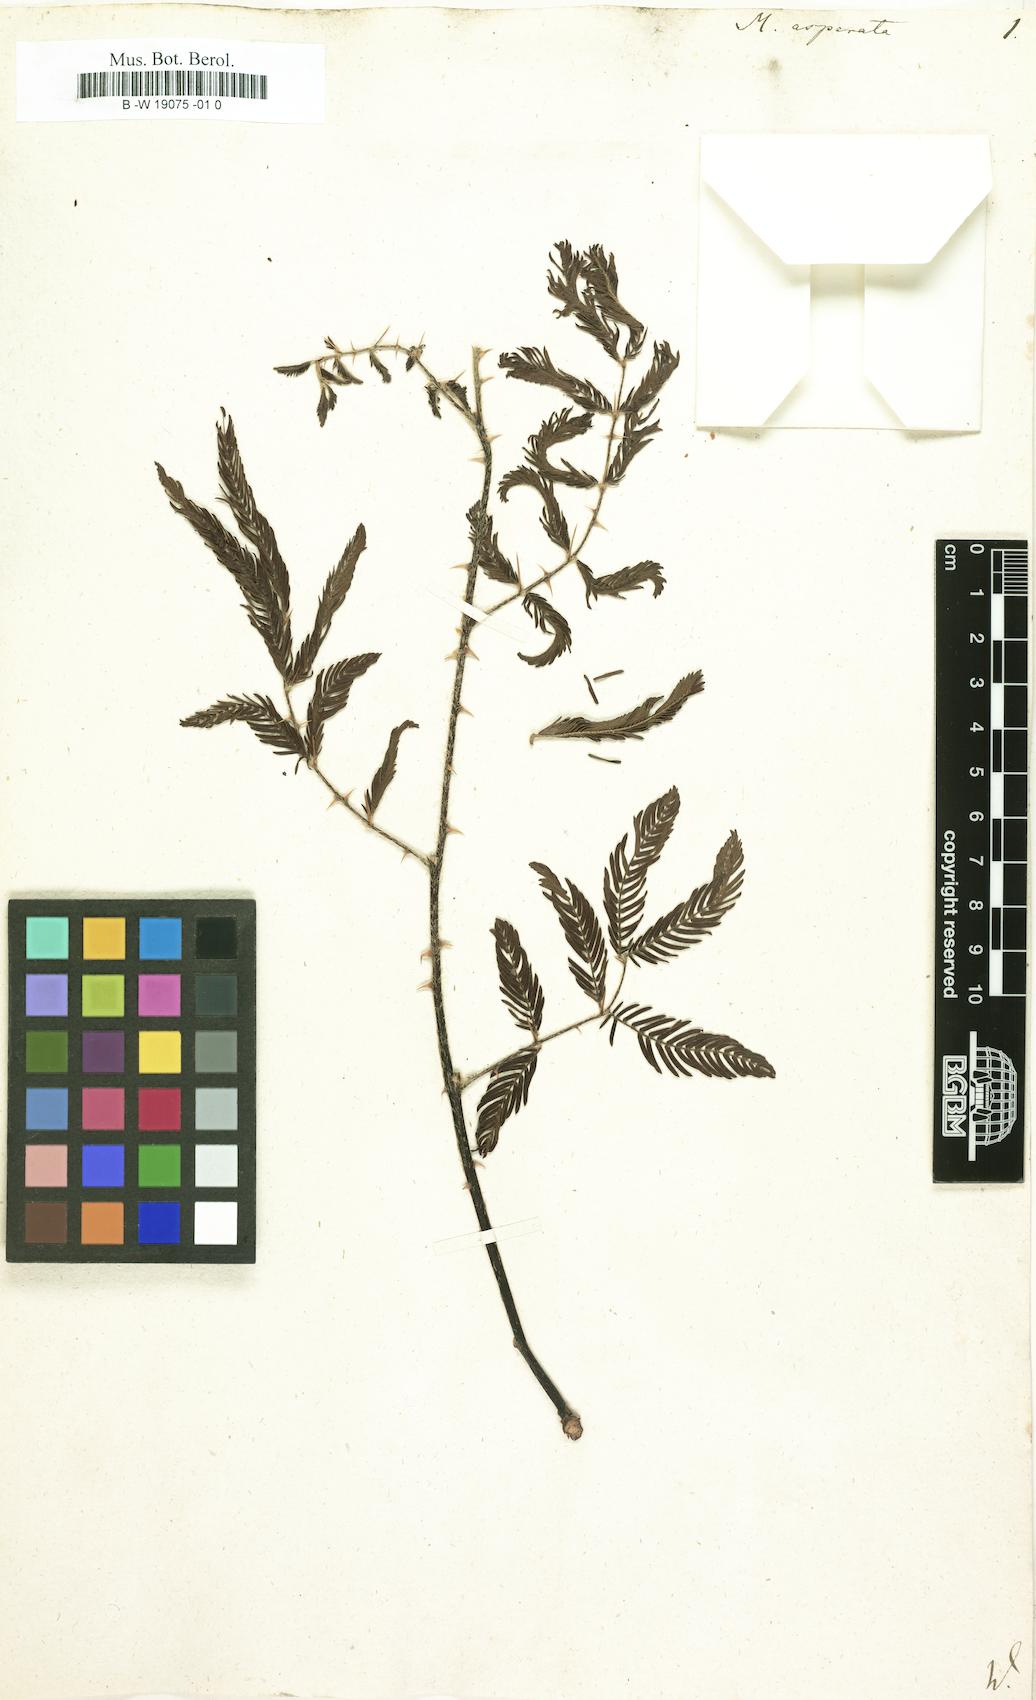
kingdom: Plantae
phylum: Tracheophyta
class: Magnoliopsida
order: Fabales
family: Fabaceae
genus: Mimosa
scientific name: Mimosa pigra
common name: Black mimosa
